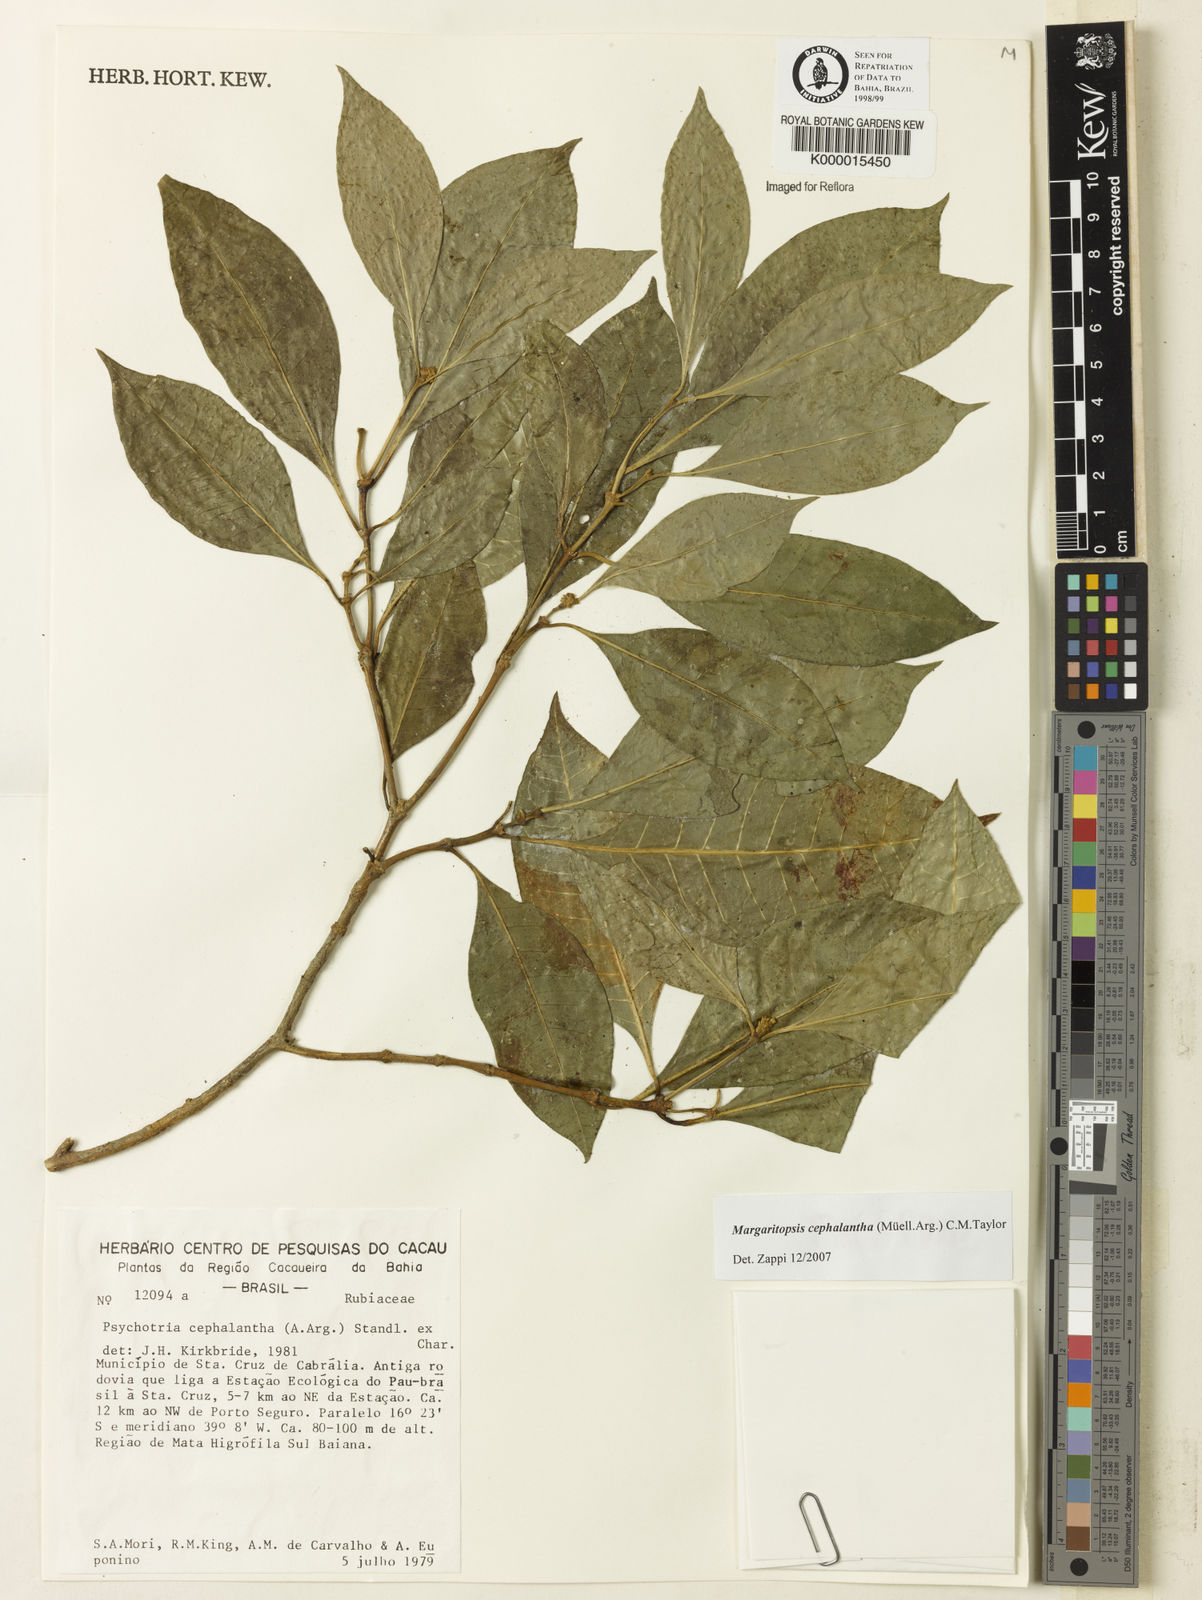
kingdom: Plantae
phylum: Tracheophyta
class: Magnoliopsida
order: Gentianales
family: Rubiaceae
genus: Eumachia
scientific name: Eumachia cephalantha
